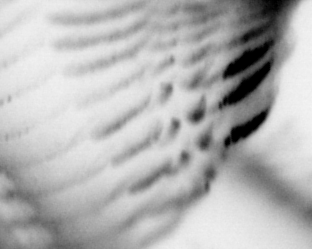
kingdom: Animalia
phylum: Annelida
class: Polychaeta
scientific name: Polychaeta
